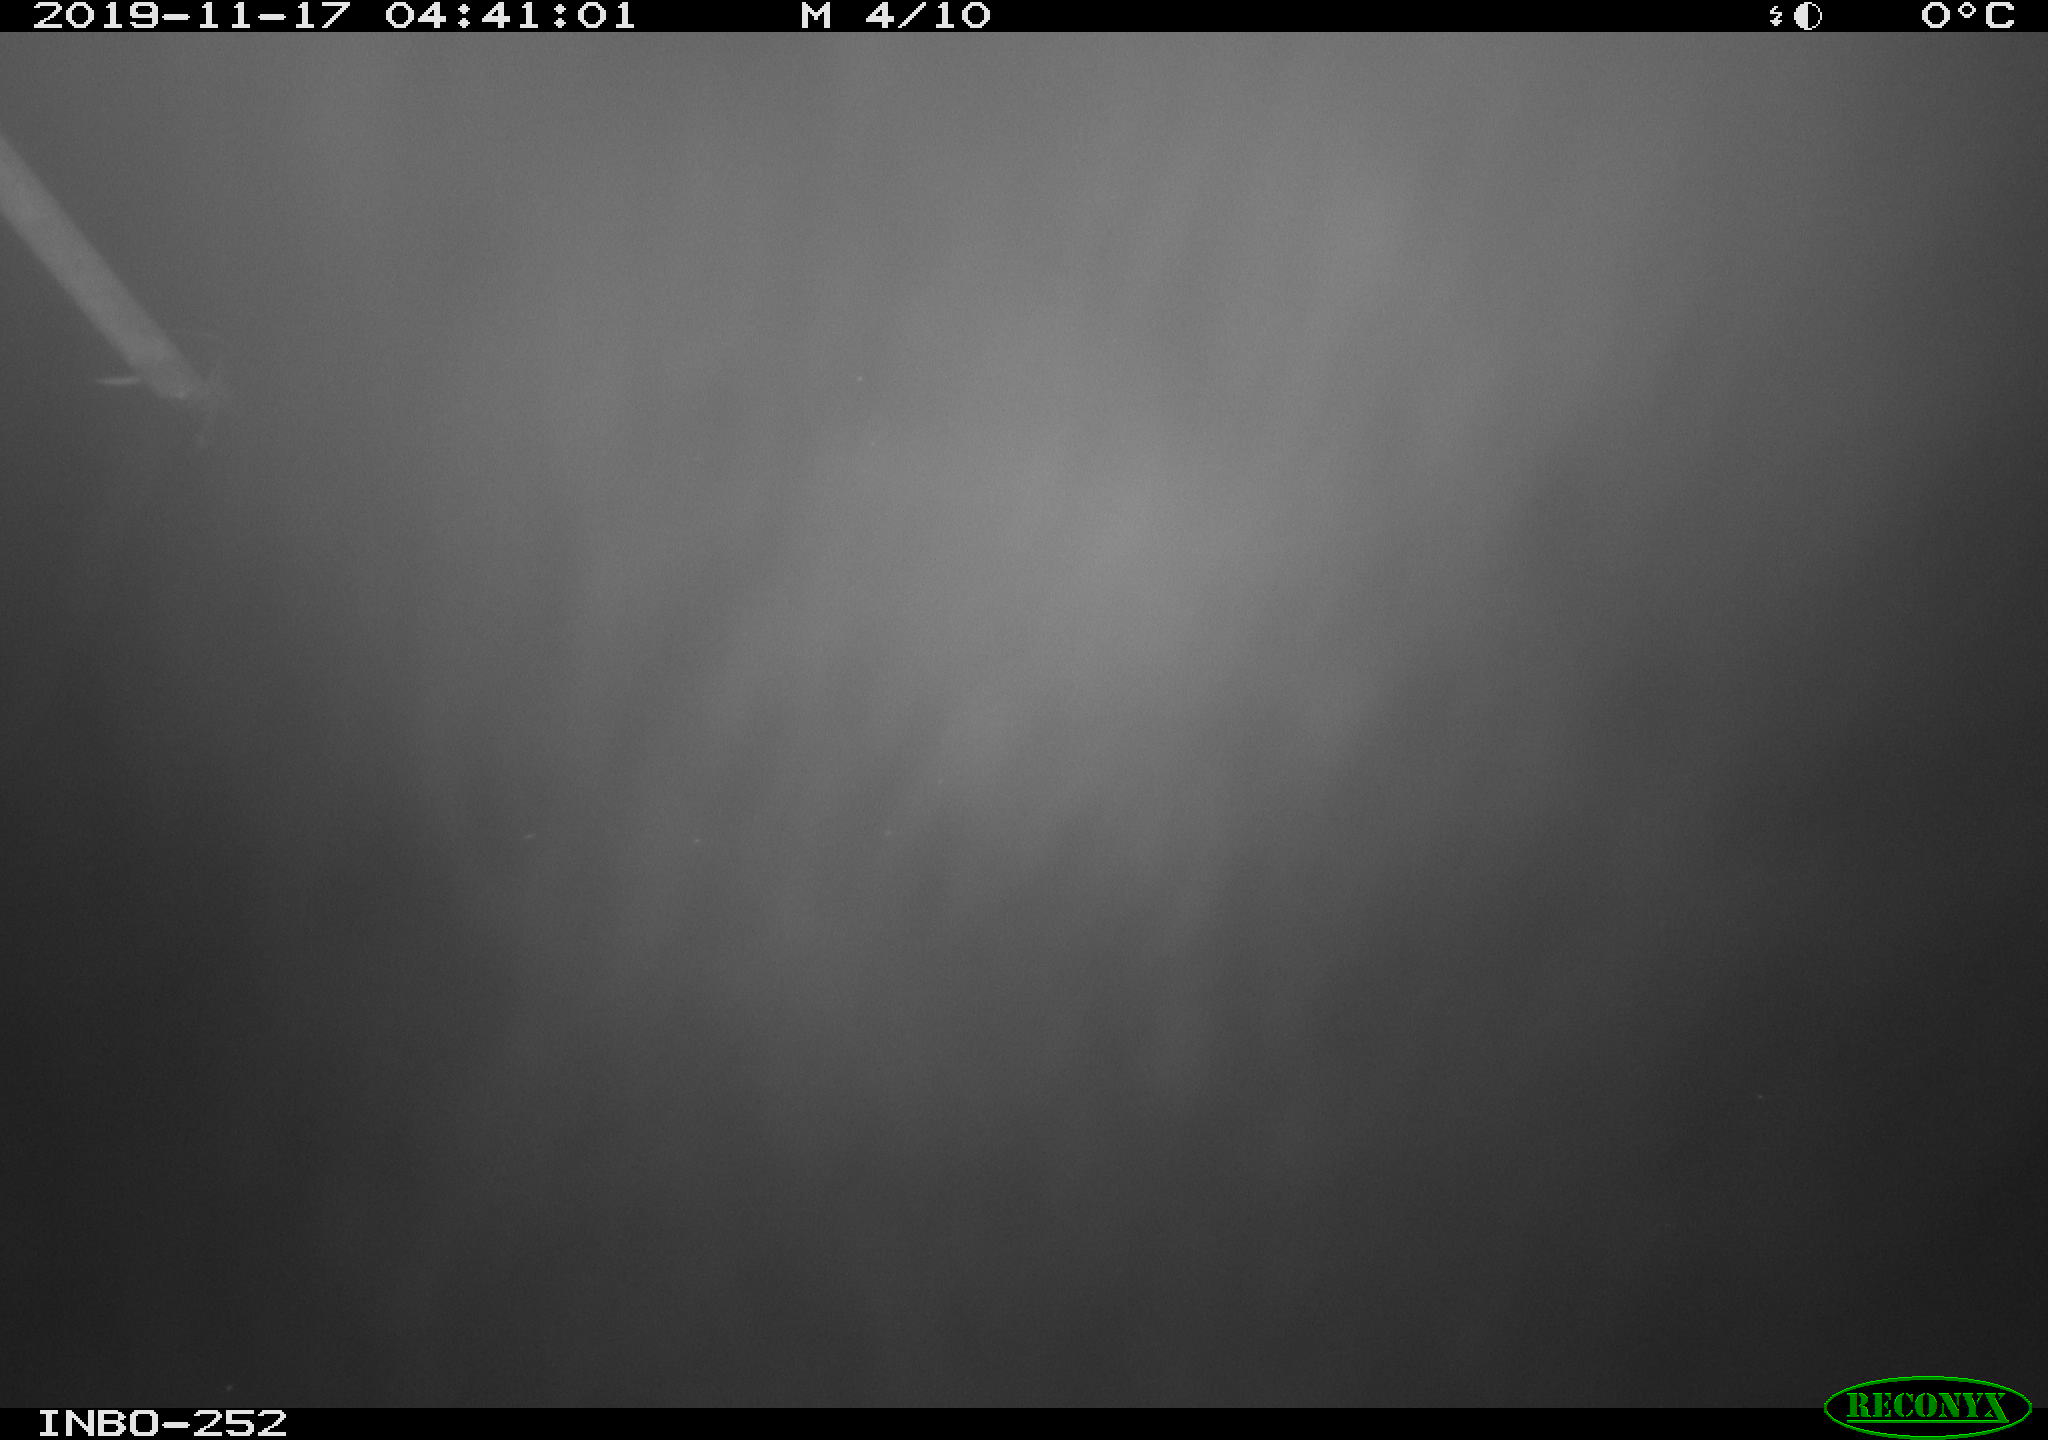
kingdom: Animalia
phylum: Chordata
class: Aves
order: Anseriformes
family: Anatidae
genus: Anas
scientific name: Anas platyrhynchos
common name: Mallard
